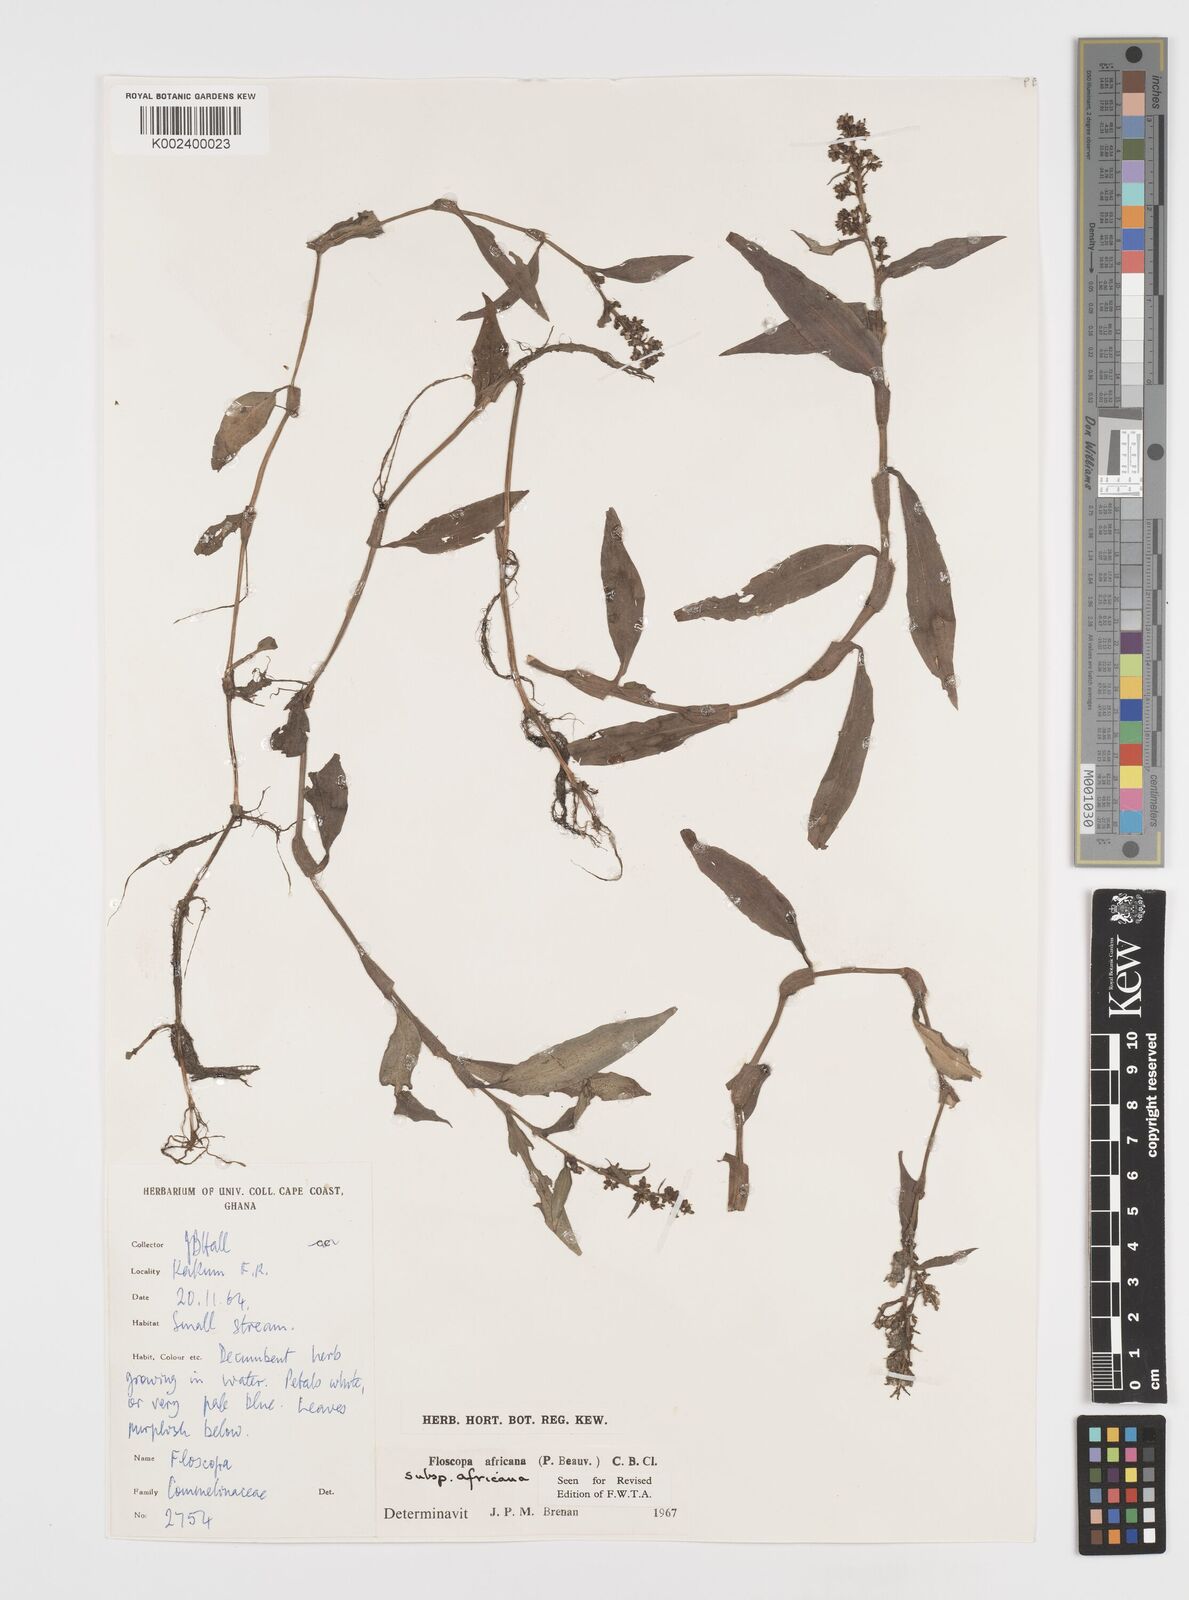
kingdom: Plantae
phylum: Tracheophyta
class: Liliopsida
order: Commelinales
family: Commelinaceae
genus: Floscopa
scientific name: Floscopa africana
